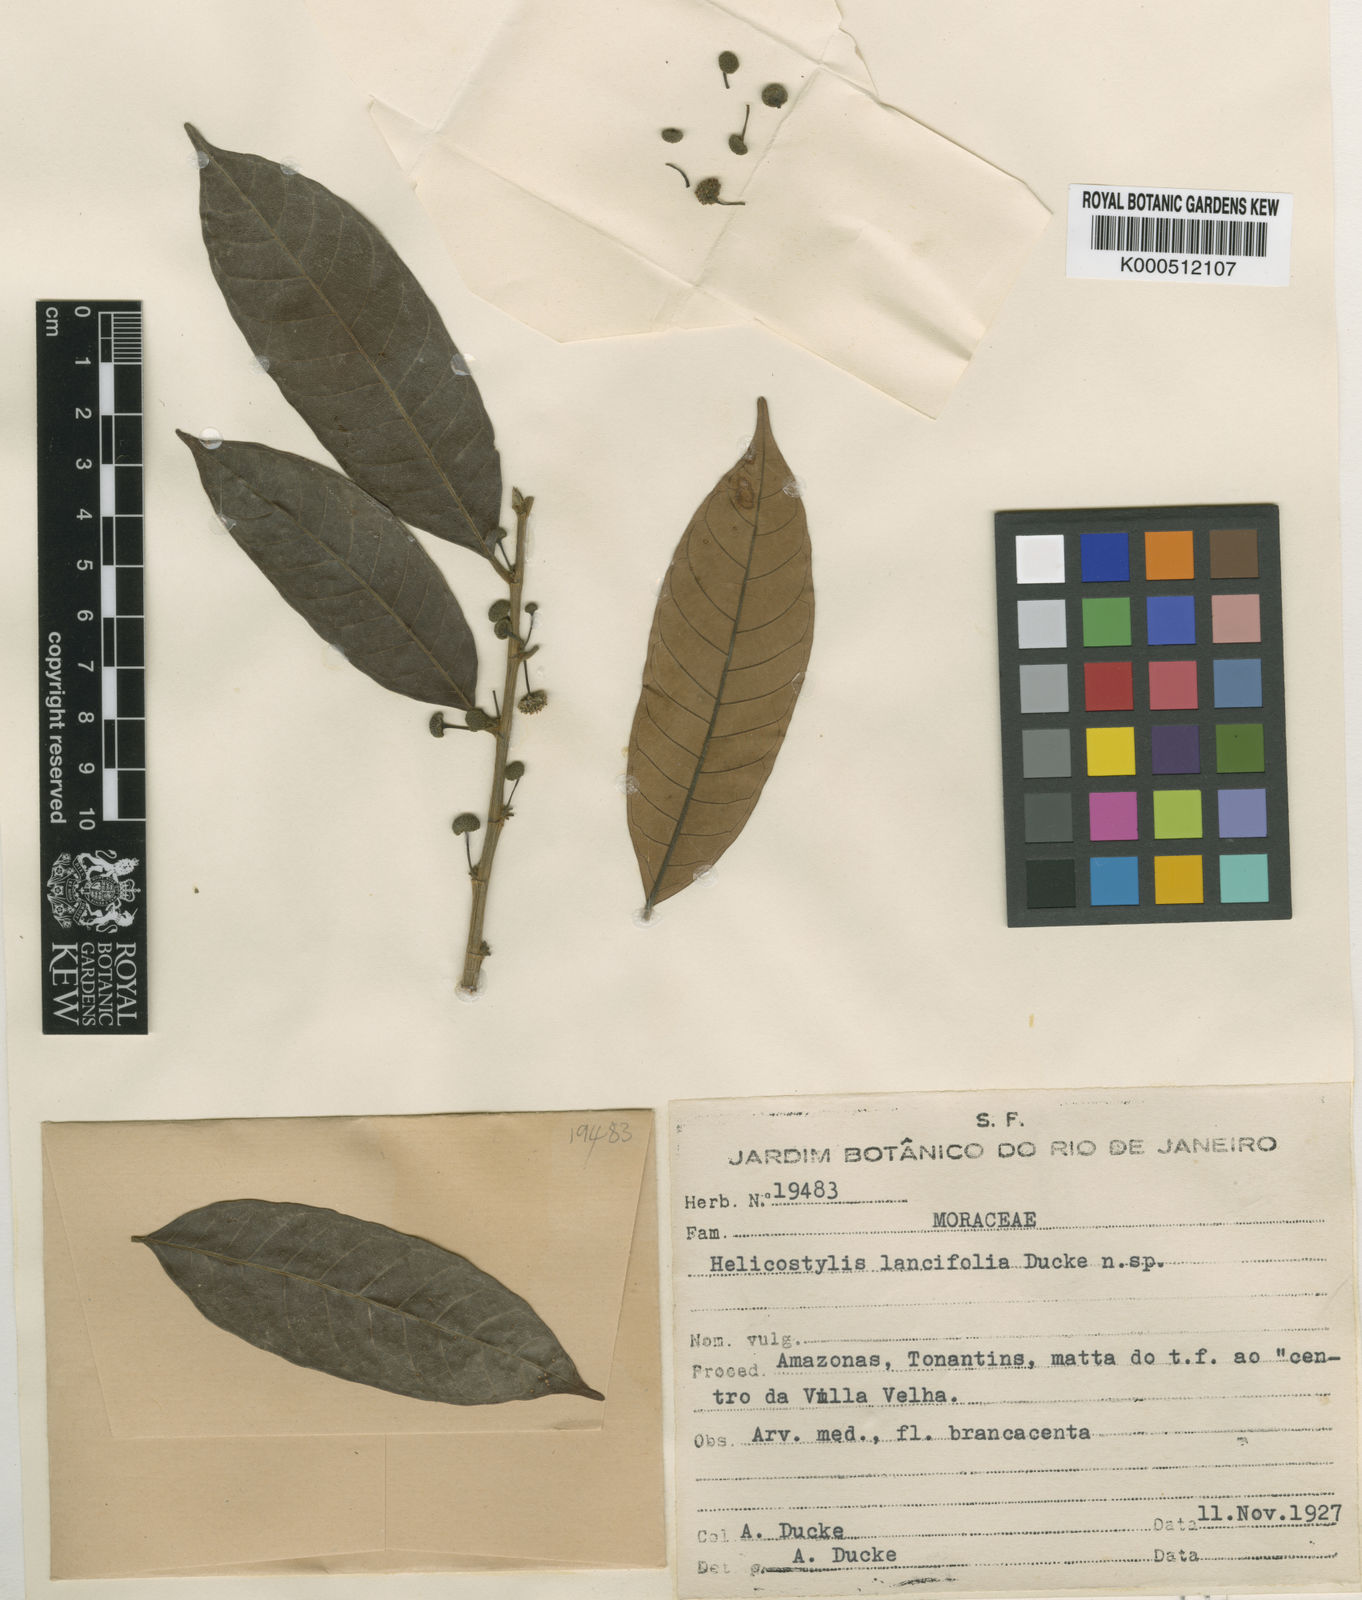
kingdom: Plantae
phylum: Tracheophyta
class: Magnoliopsida
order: Rosales
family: Moraceae
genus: Helicostylis
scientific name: Helicostylis elegans
